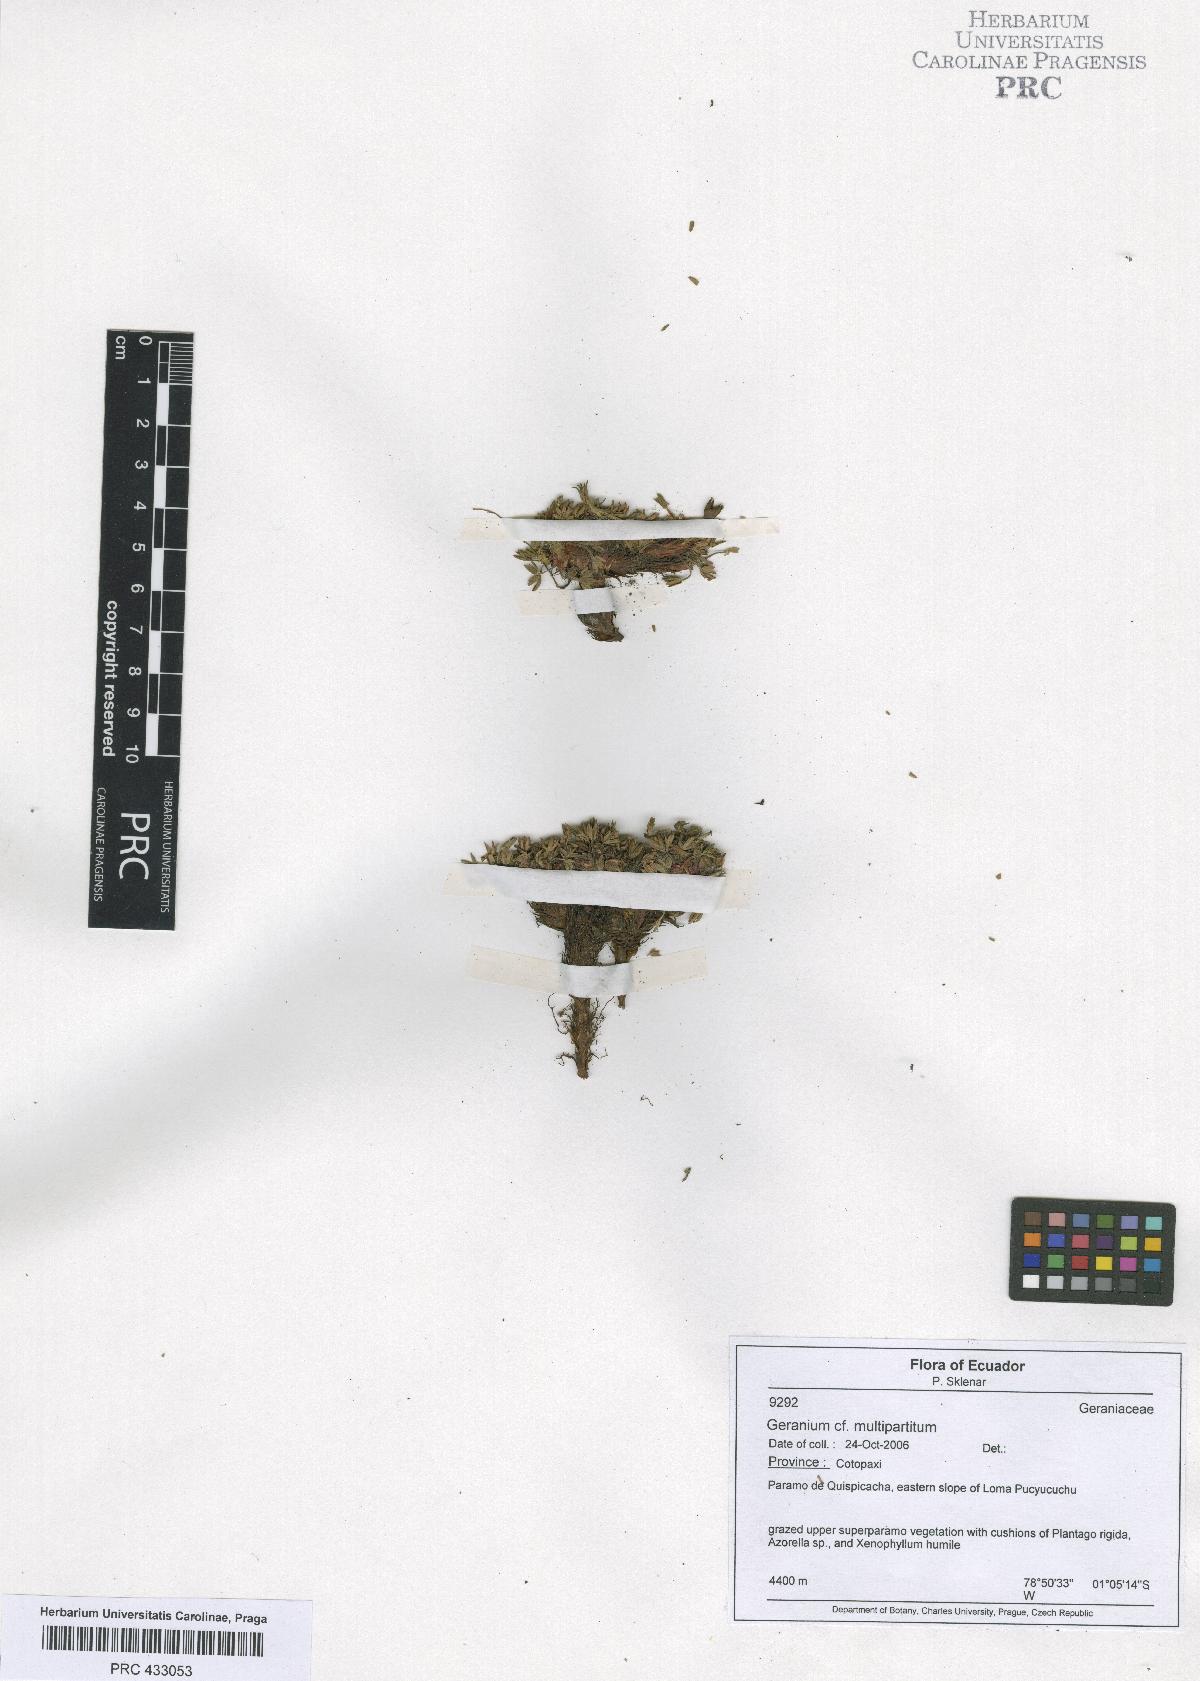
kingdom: Plantae
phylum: Tracheophyta
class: Magnoliopsida
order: Geraniales
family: Geraniaceae
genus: Geranium
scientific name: Geranium sibbaldioides
